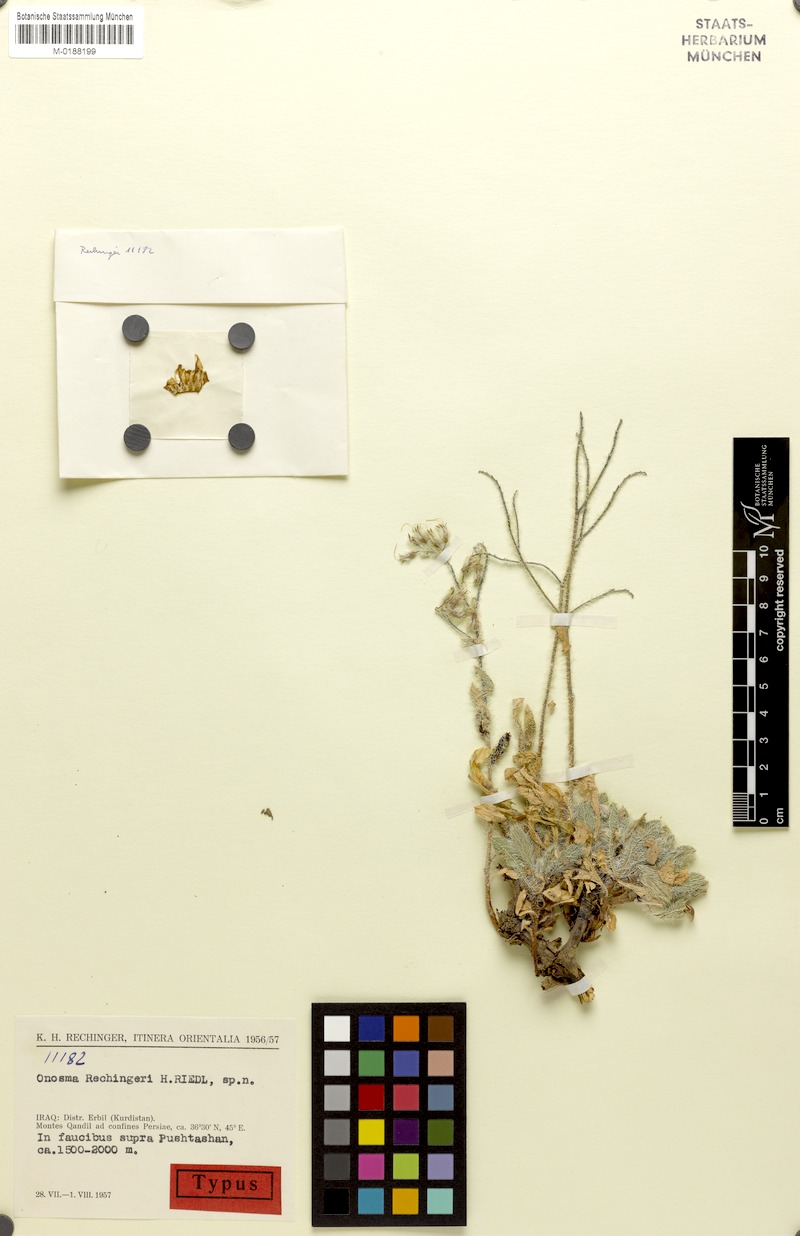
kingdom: Plantae
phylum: Tracheophyta
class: Magnoliopsida
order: Boraginales
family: Boraginaceae
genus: Onosma
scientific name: Onosma rechingeri
